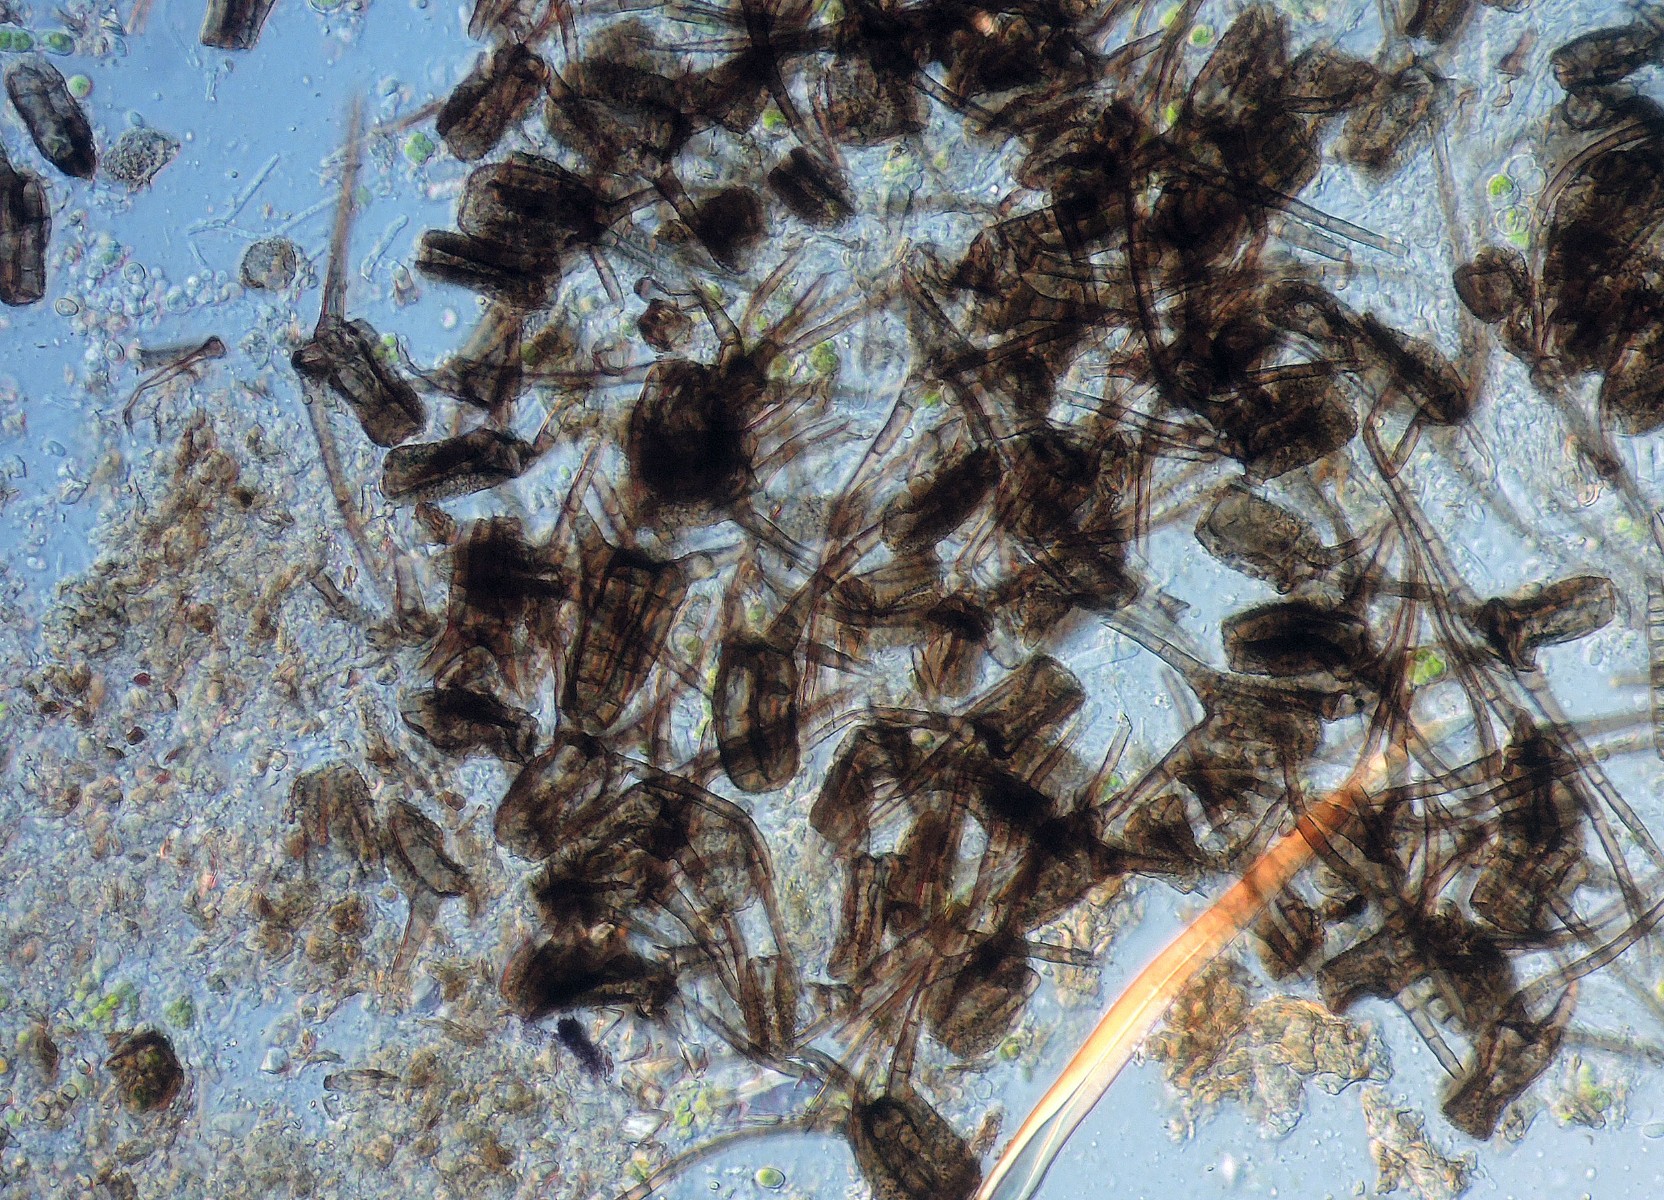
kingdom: Fungi
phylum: Ascomycota
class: Dothideomycetes
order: Pleosporales
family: Tetraplosphaeriaceae
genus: Tetraploa
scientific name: Tetraploa aristata
